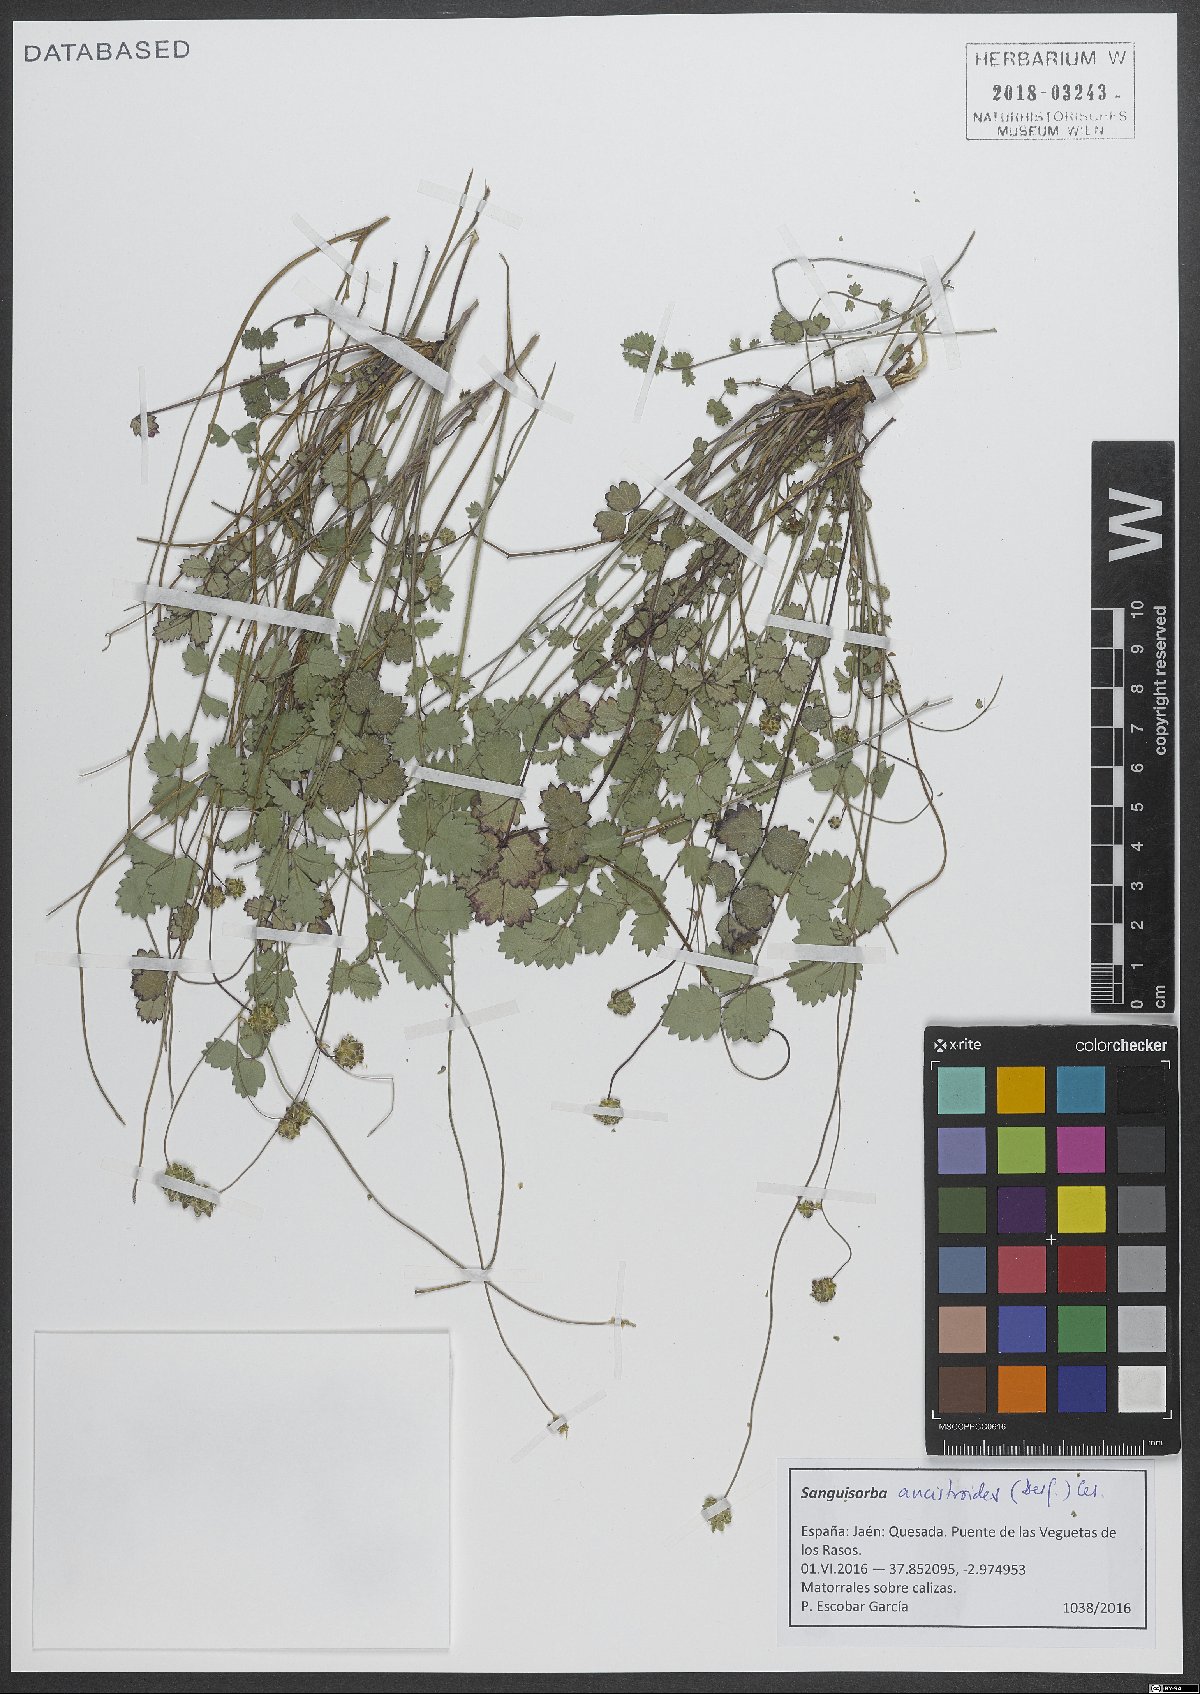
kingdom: Plantae
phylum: Tracheophyta
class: Magnoliopsida
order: Rosales
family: Rosaceae
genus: Poterium
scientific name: Poterium ancistroides
